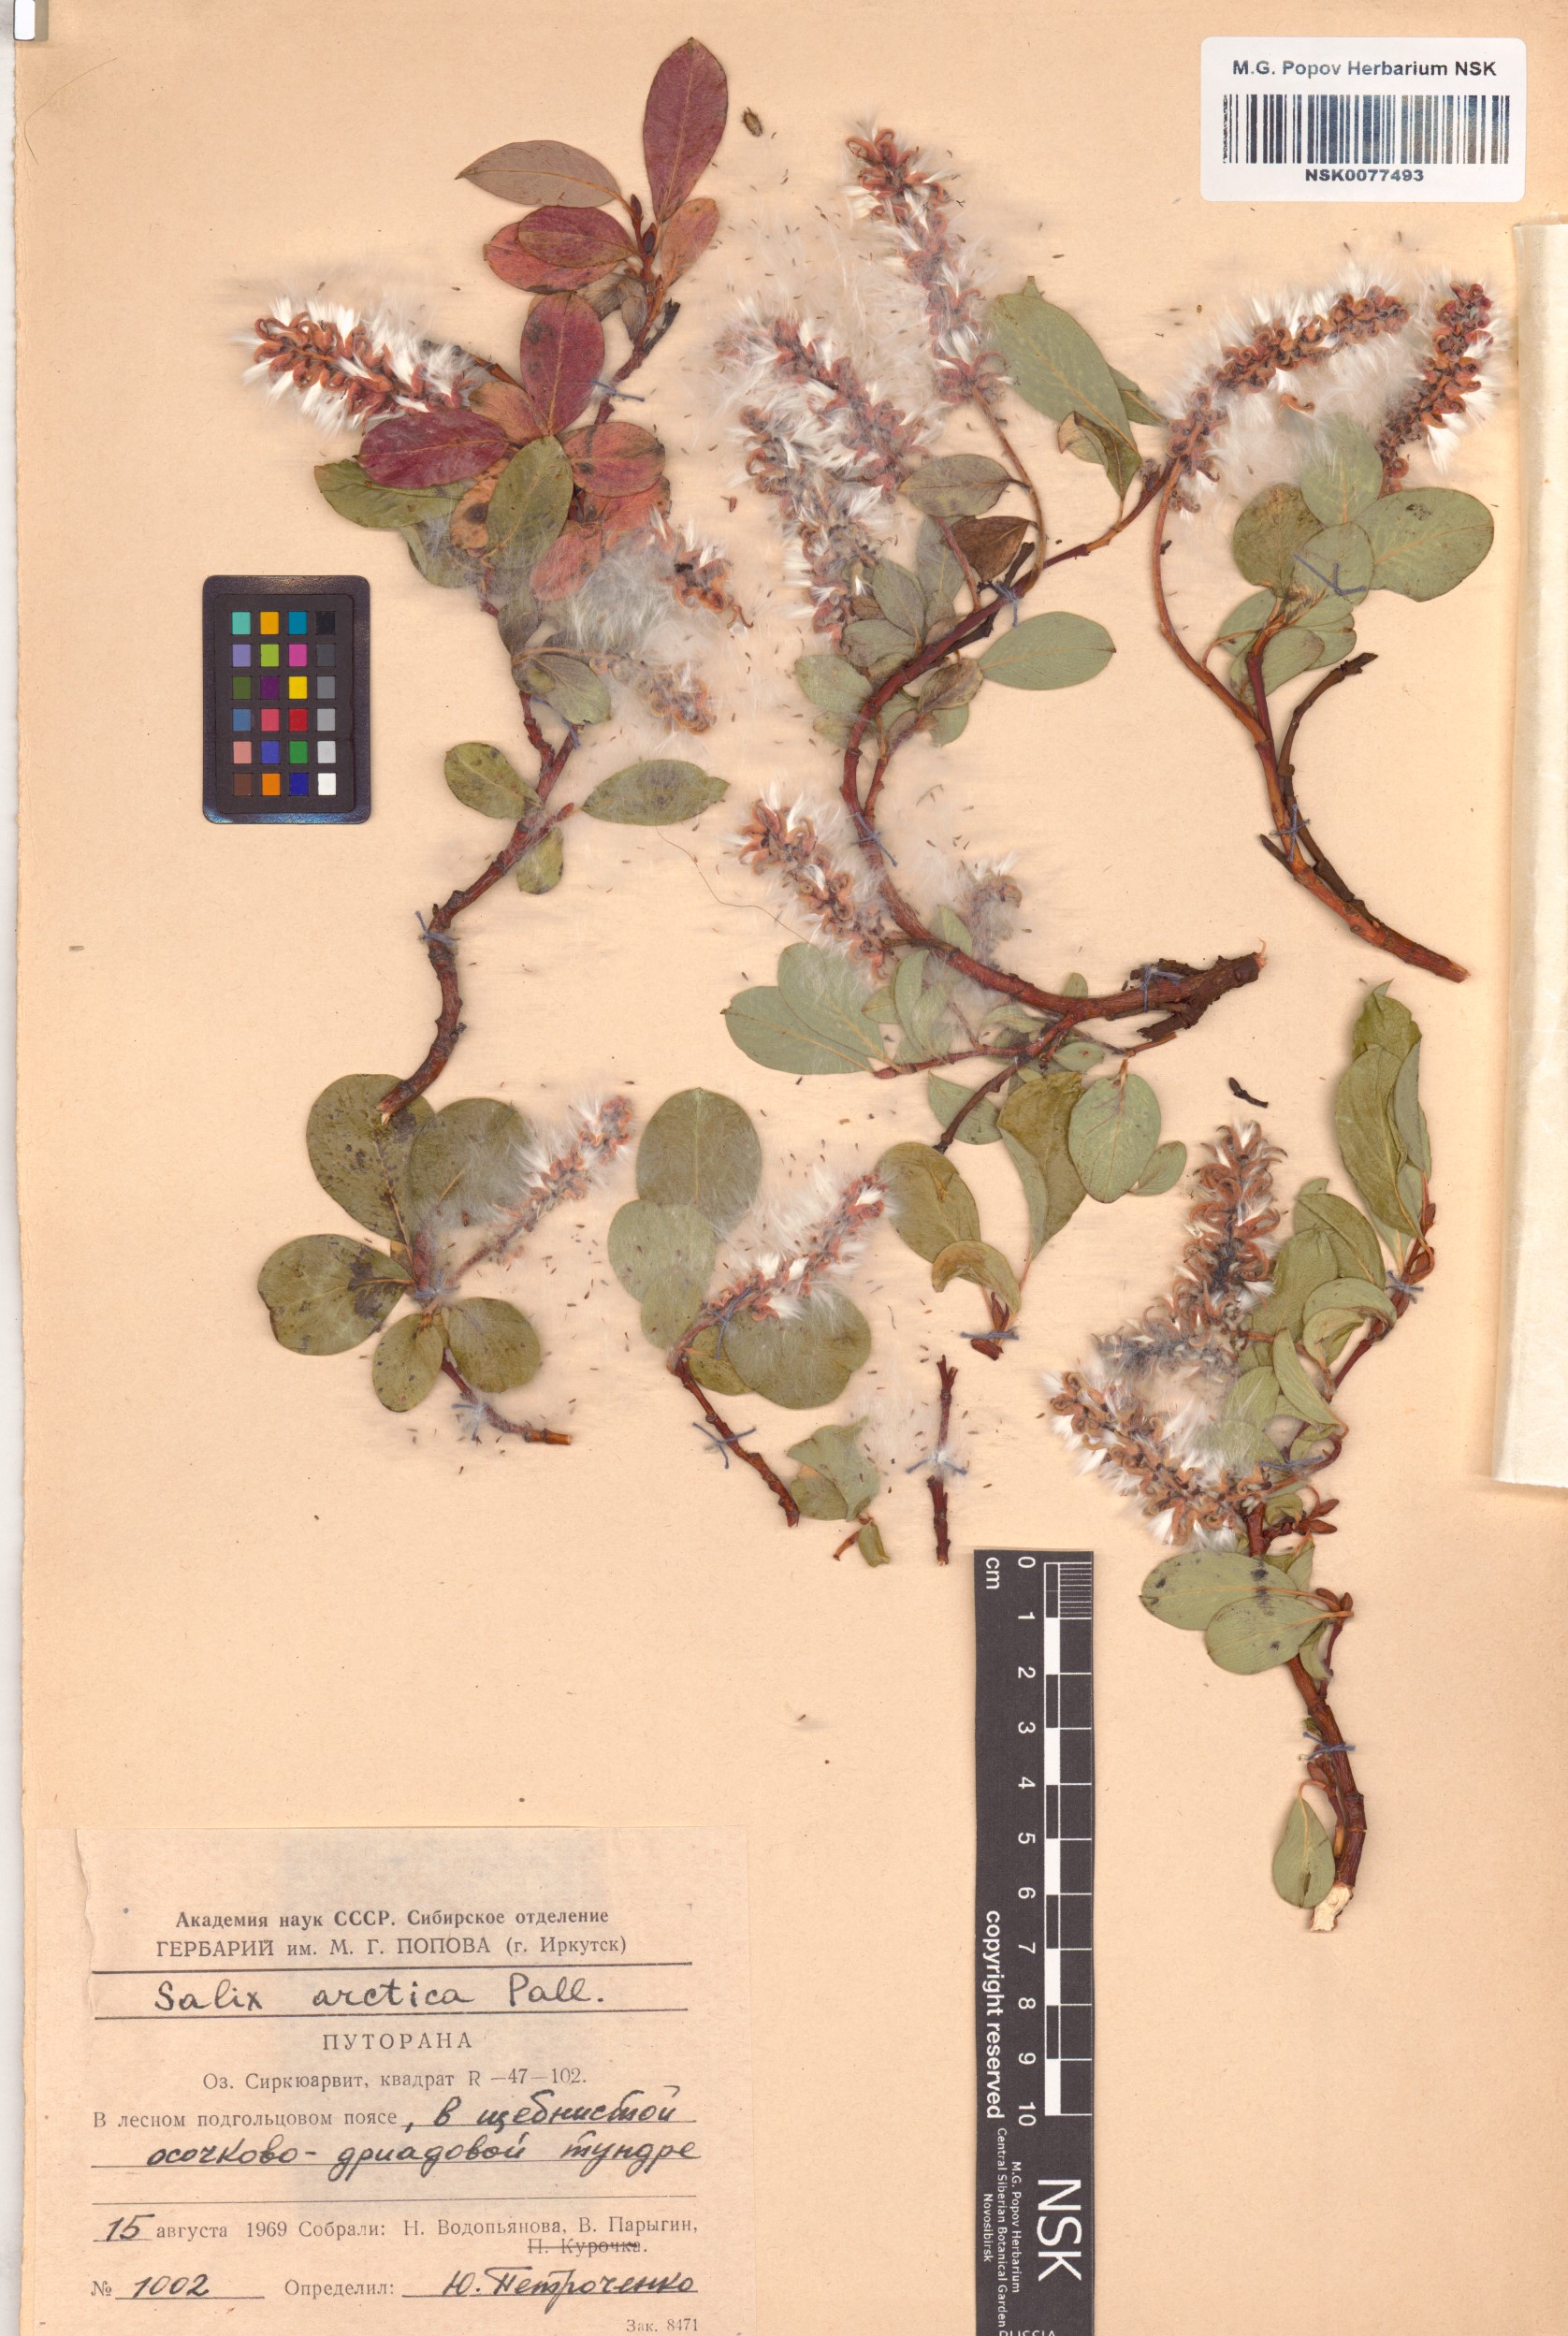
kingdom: Plantae
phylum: Tracheophyta
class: Magnoliopsida
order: Malpighiales
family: Salicaceae
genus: Salix
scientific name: Salix arctica
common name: Arctic willow
